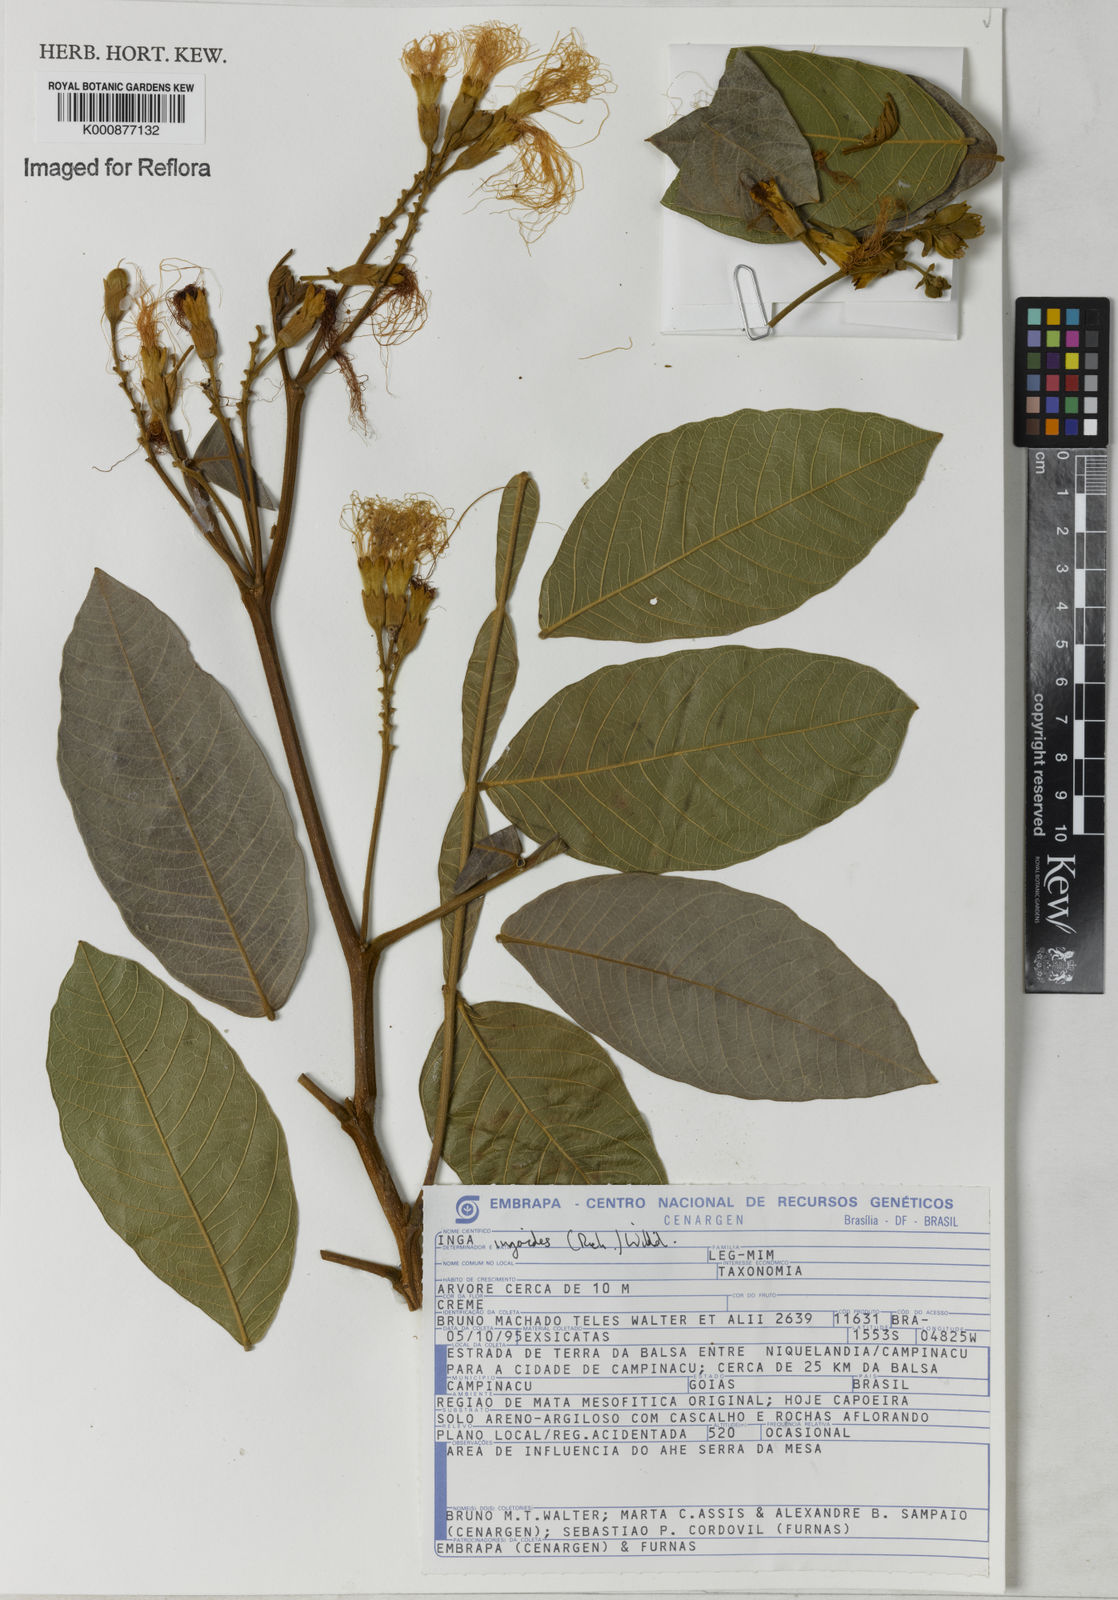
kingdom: Plantae
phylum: Tracheophyta
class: Magnoliopsida
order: Fabales
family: Fabaceae
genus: Inga
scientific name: Inga ingoides
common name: Spanish ash
